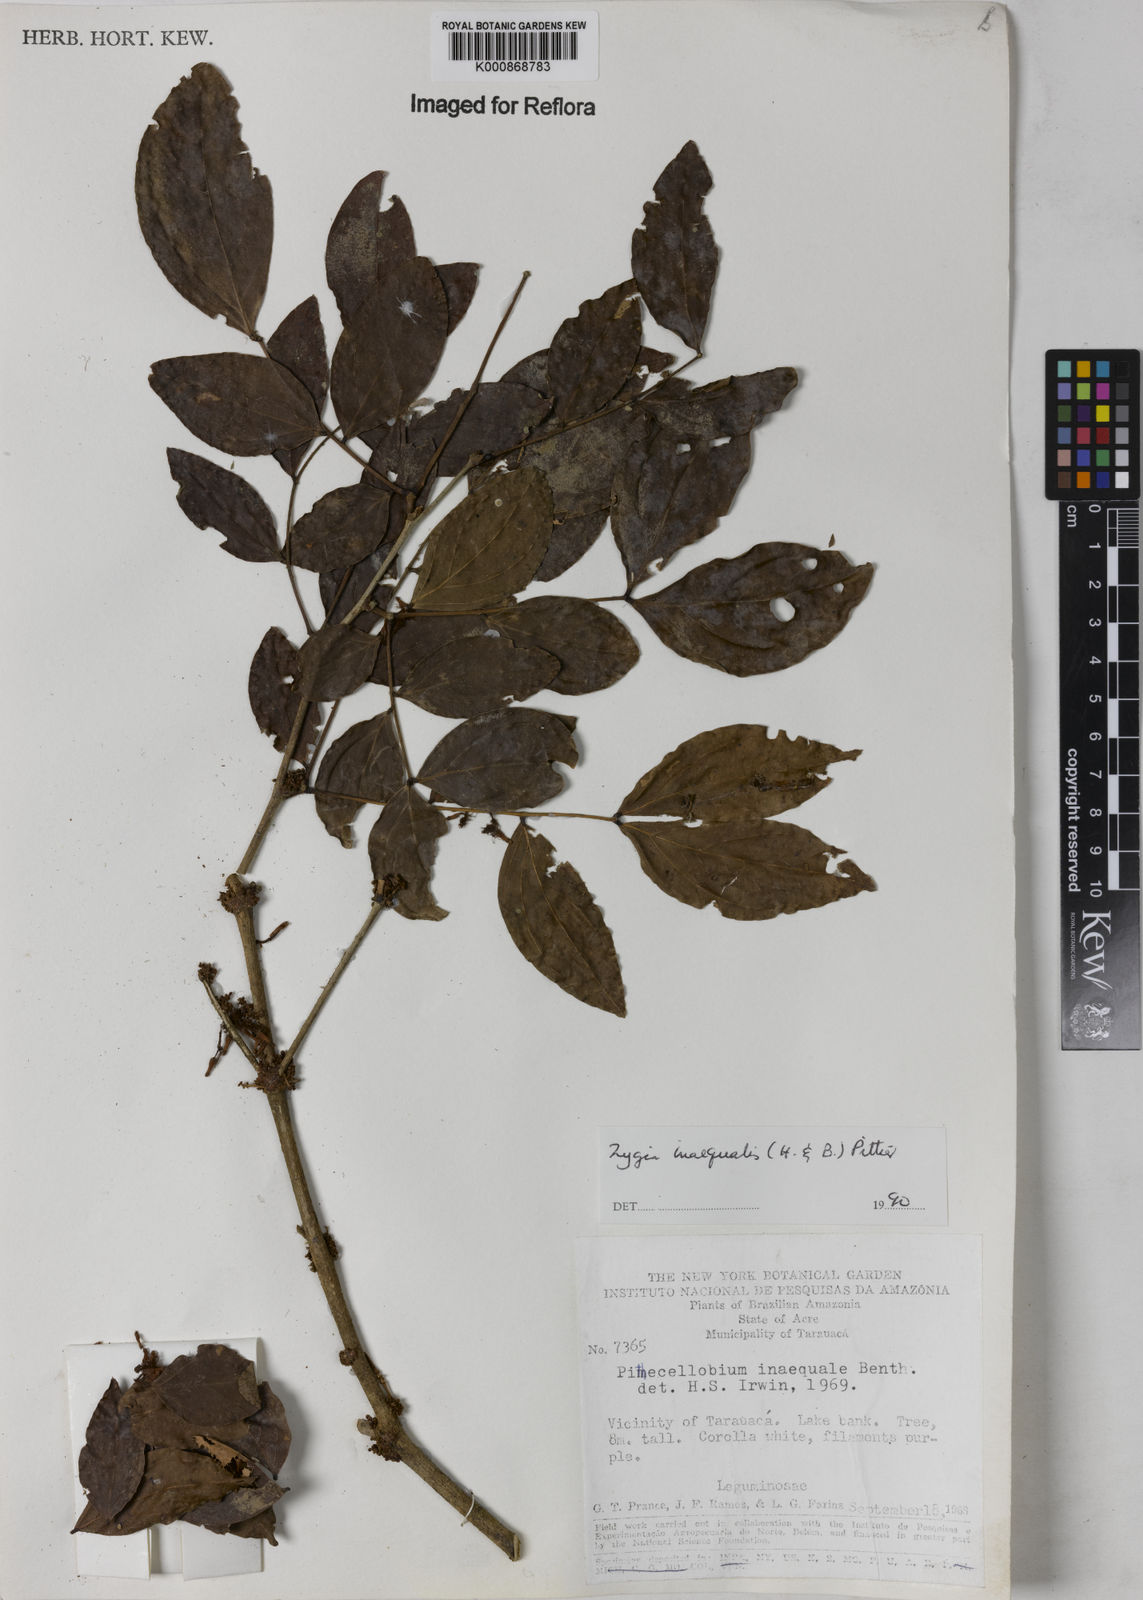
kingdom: Plantae
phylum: Tracheophyta
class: Magnoliopsida
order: Fabales
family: Fabaceae
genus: Zygia
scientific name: Zygia inaequalis
